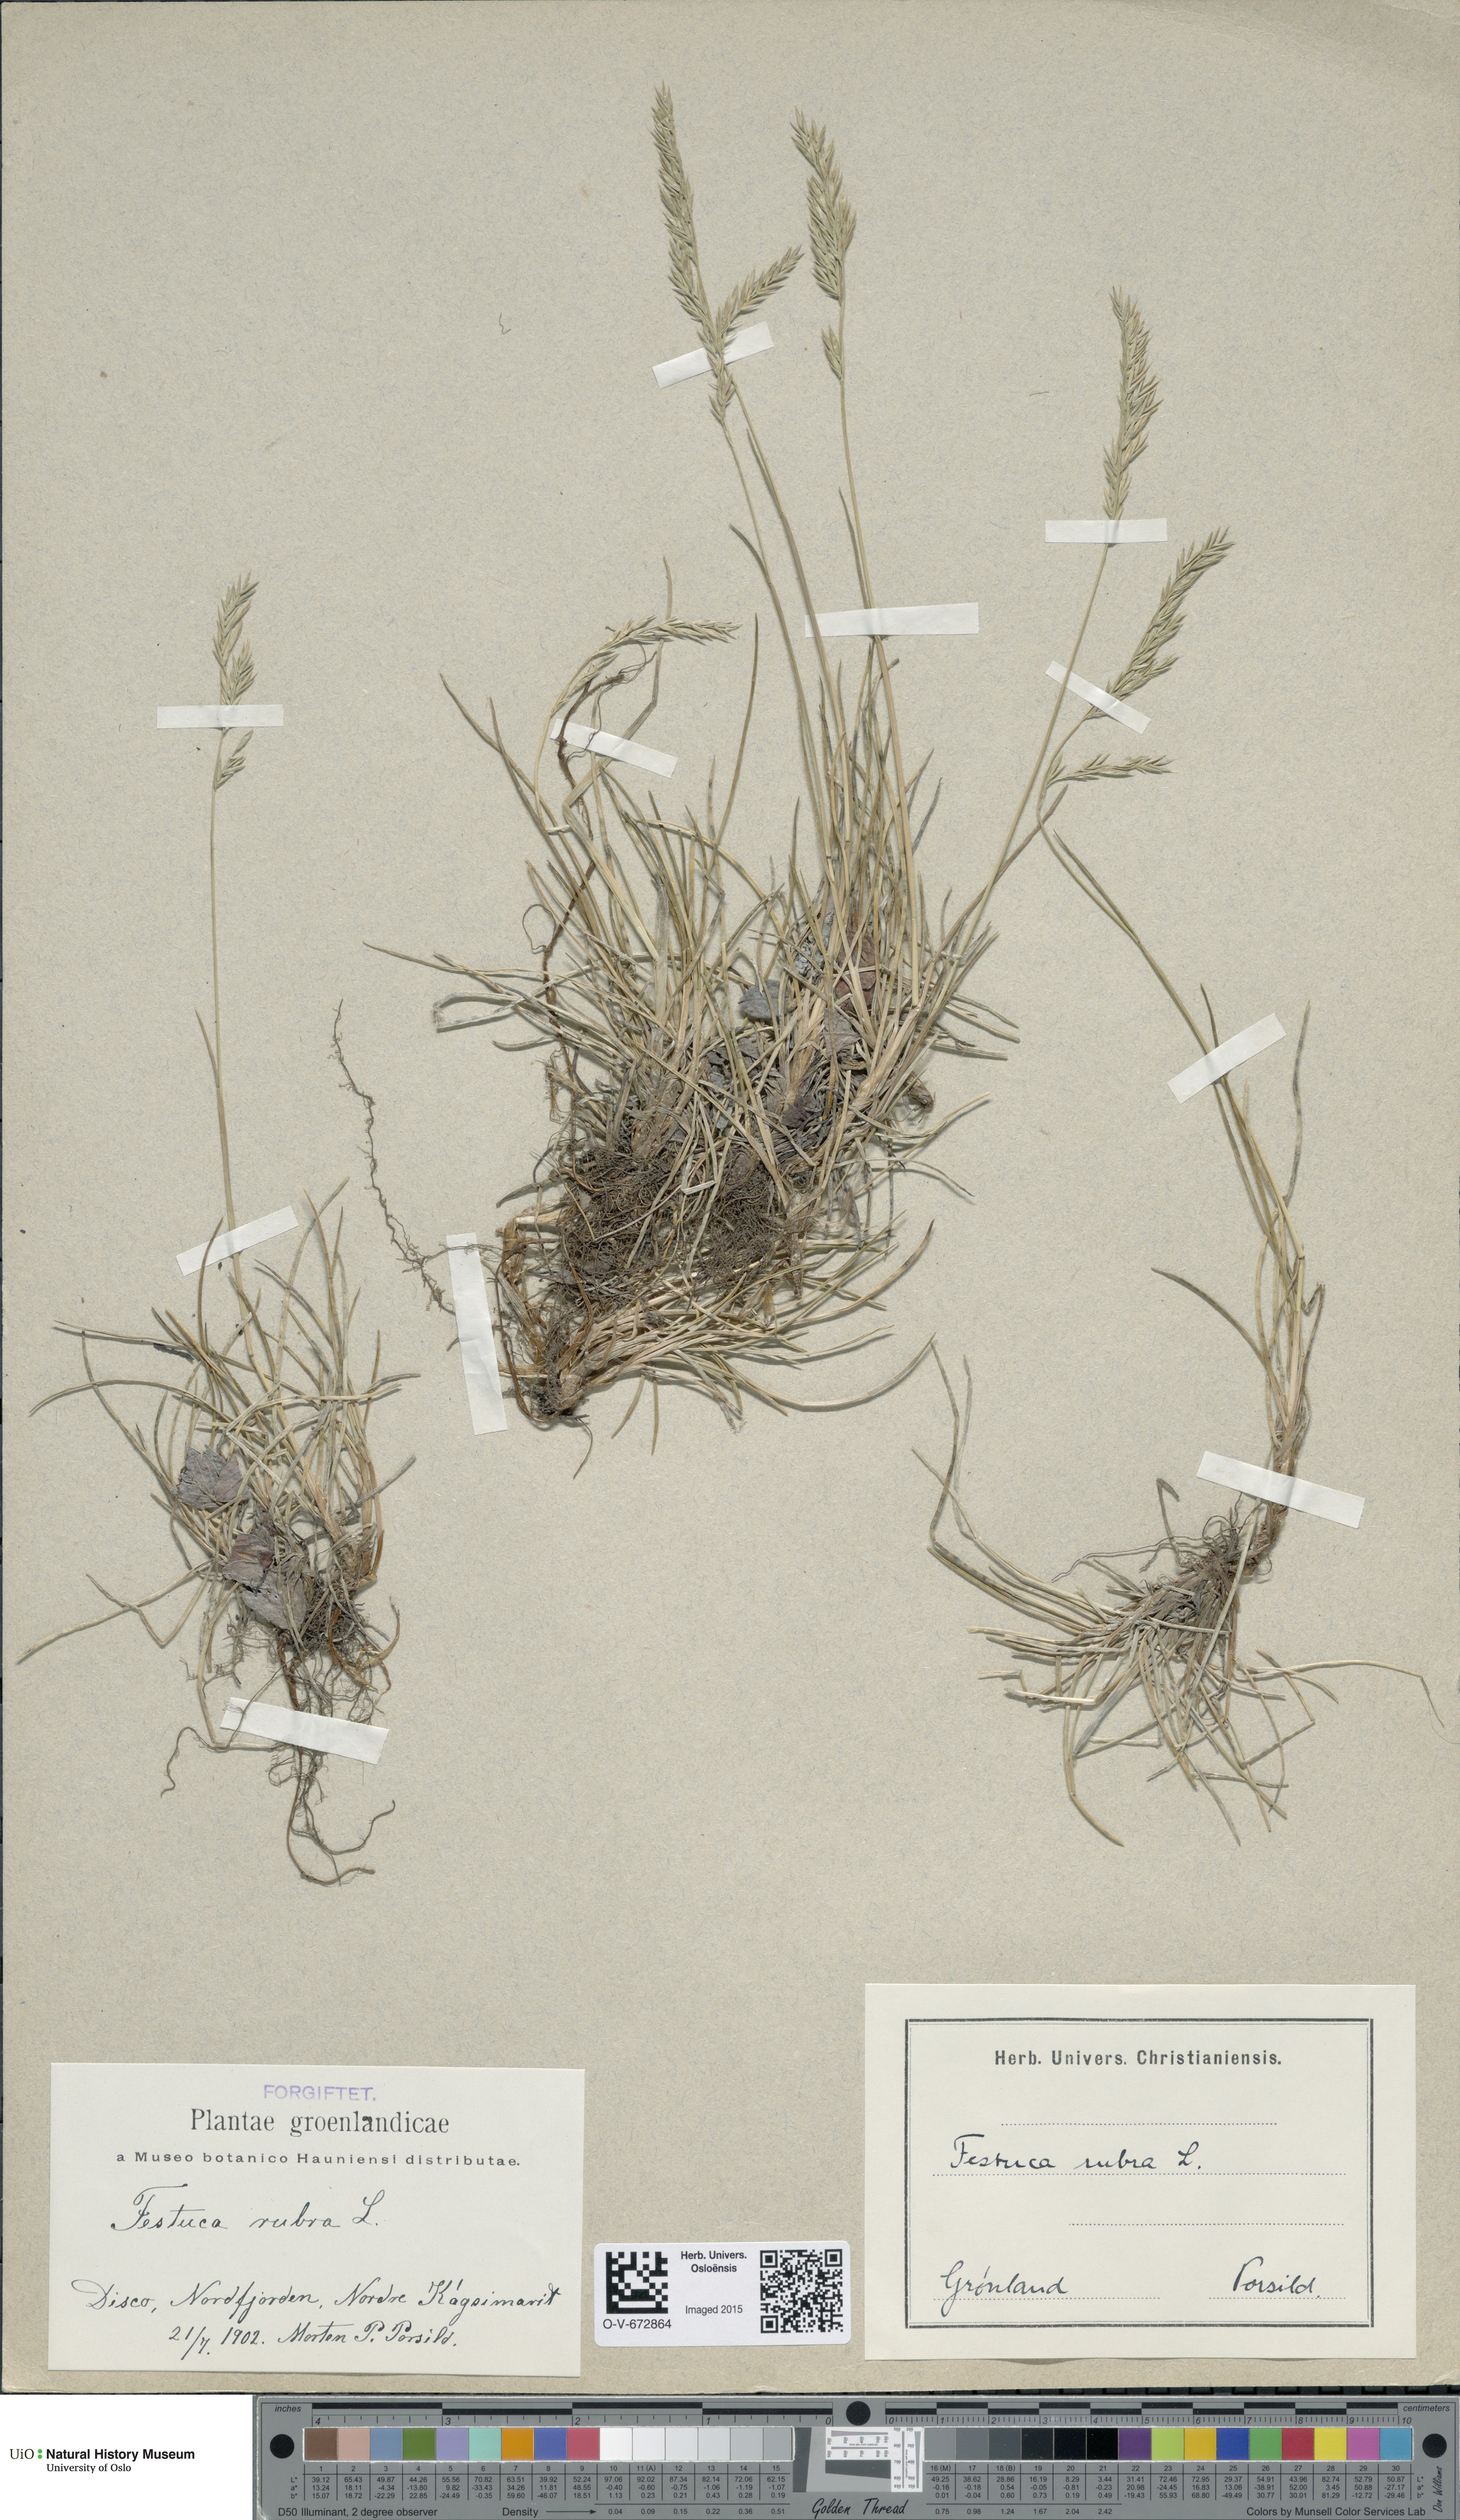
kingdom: Plantae
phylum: Tracheophyta
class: Liliopsida
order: Poales
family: Poaceae
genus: Festuca
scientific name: Festuca rubra
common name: Red fescue
